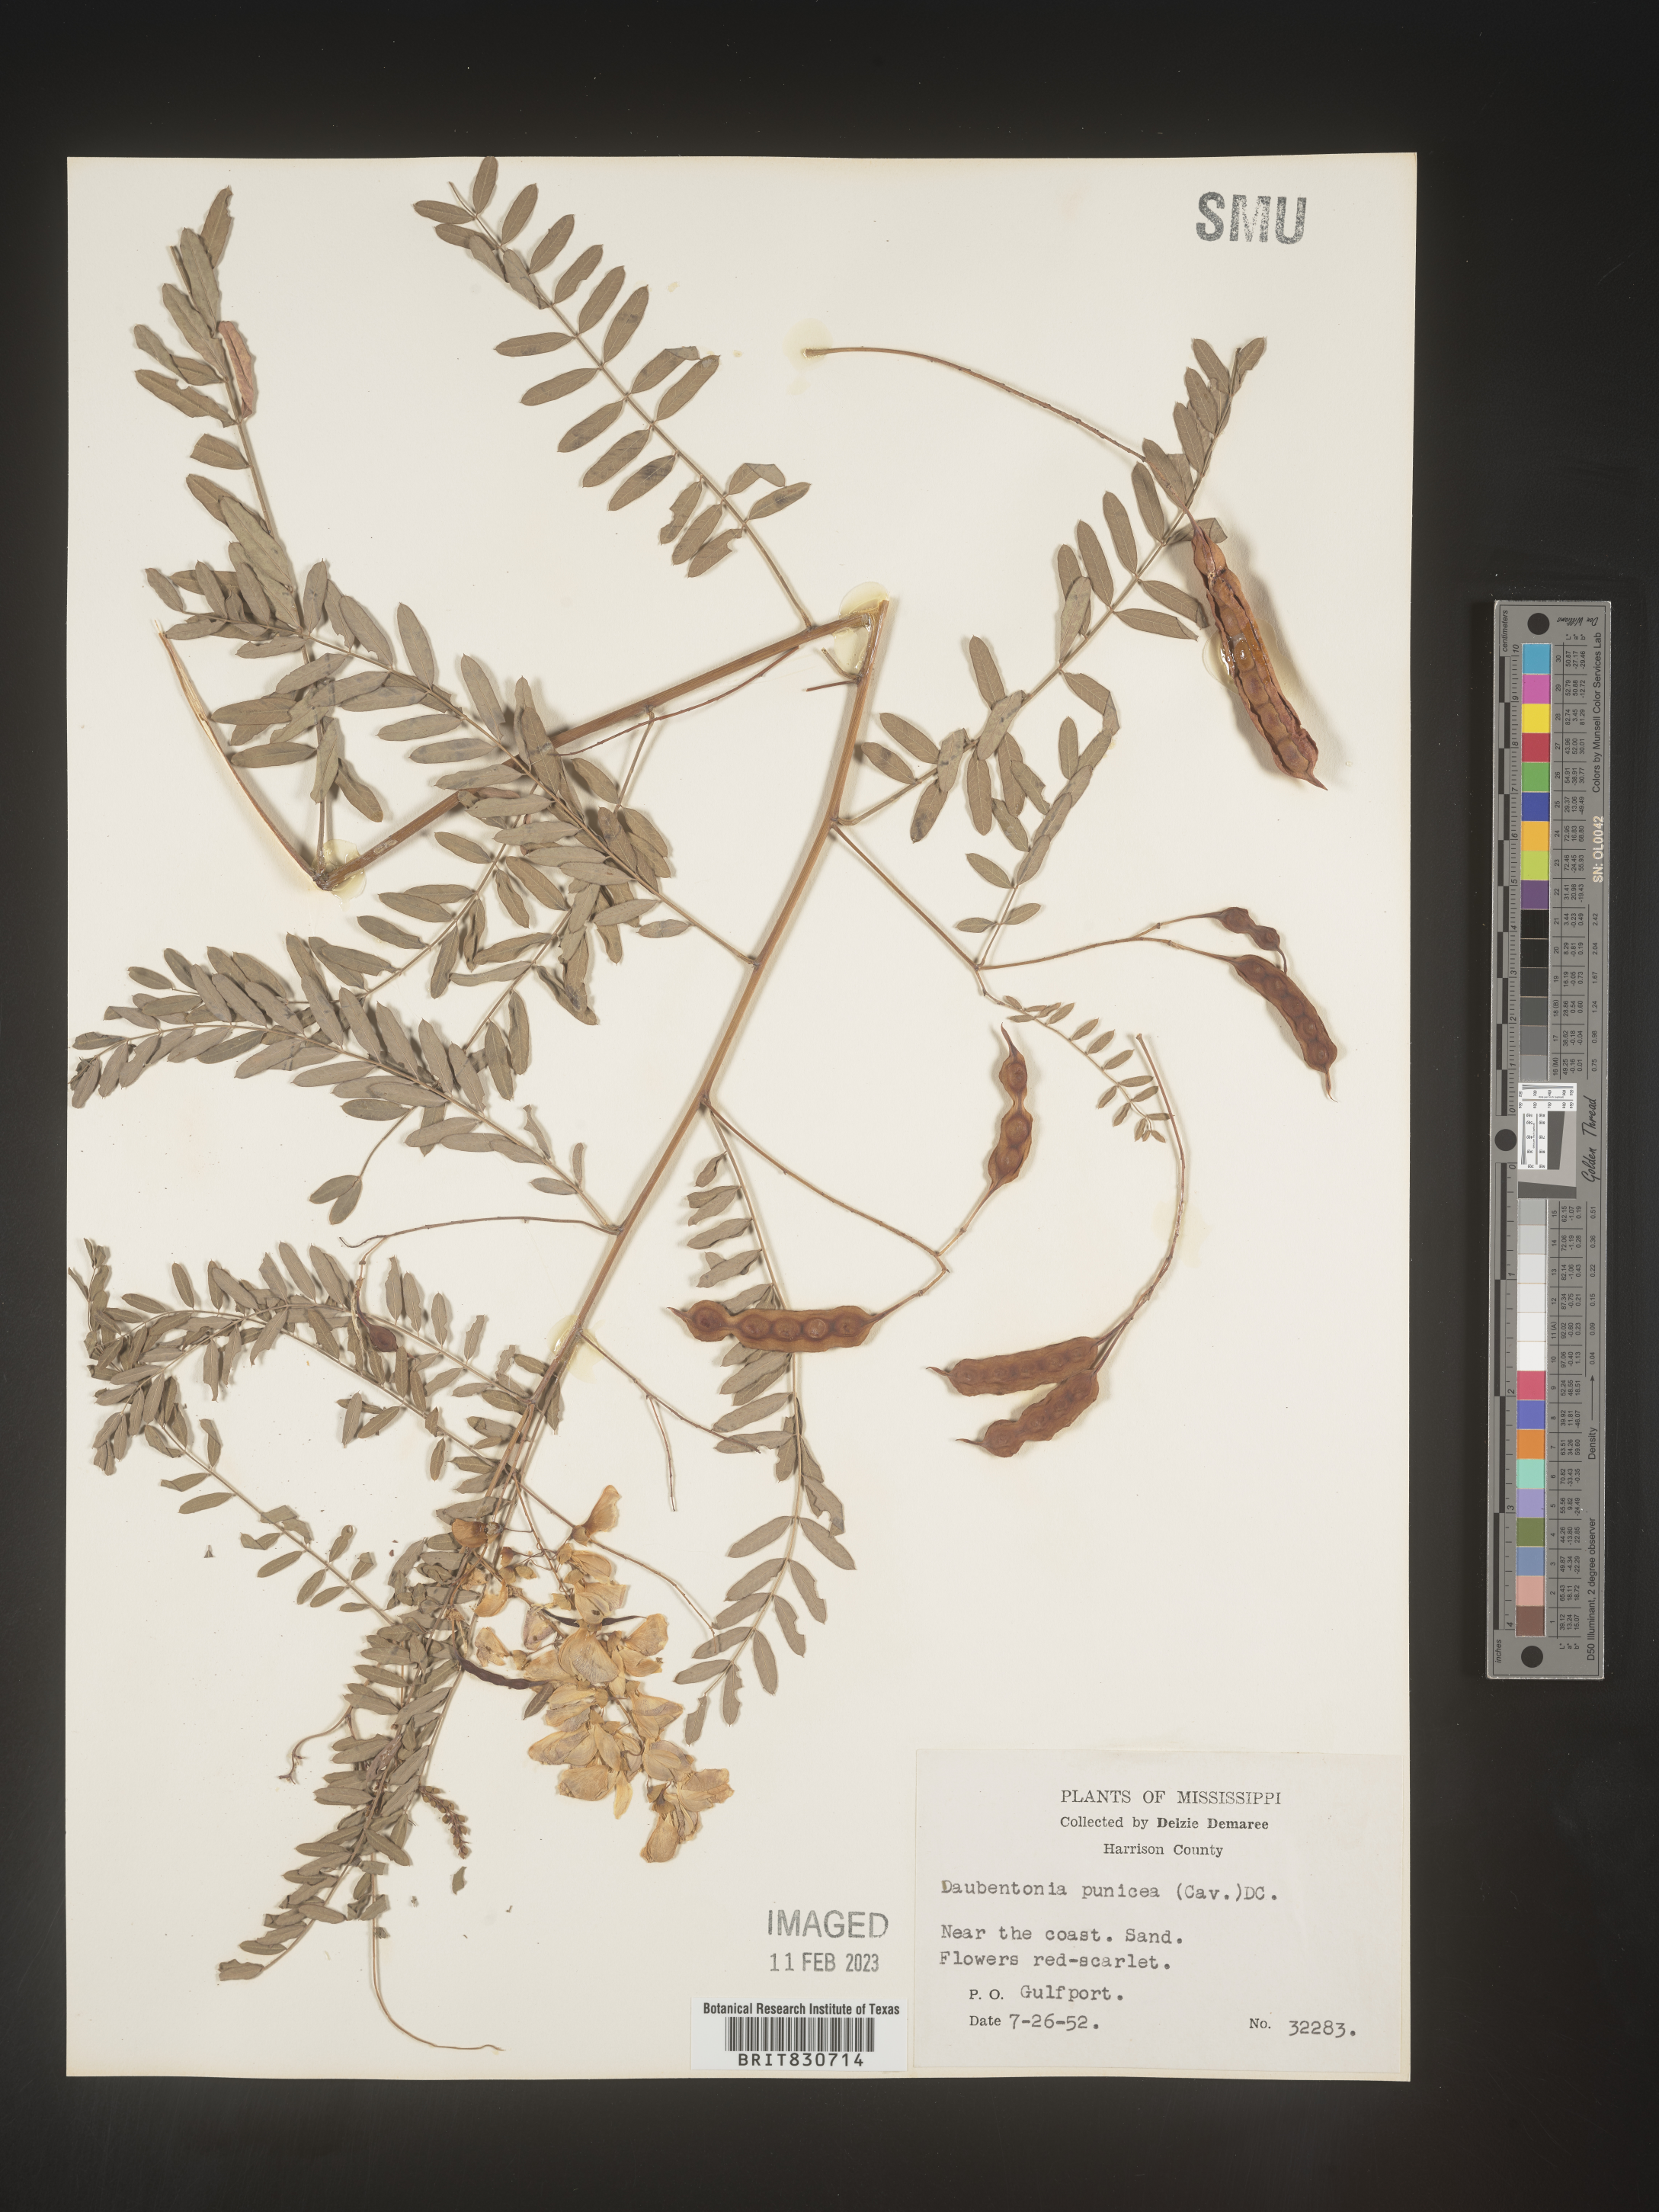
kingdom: Plantae
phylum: Tracheophyta
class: Magnoliopsida
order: Fabales
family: Fabaceae
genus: Sesbania
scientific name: Sesbania punicea
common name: Rattlebox
